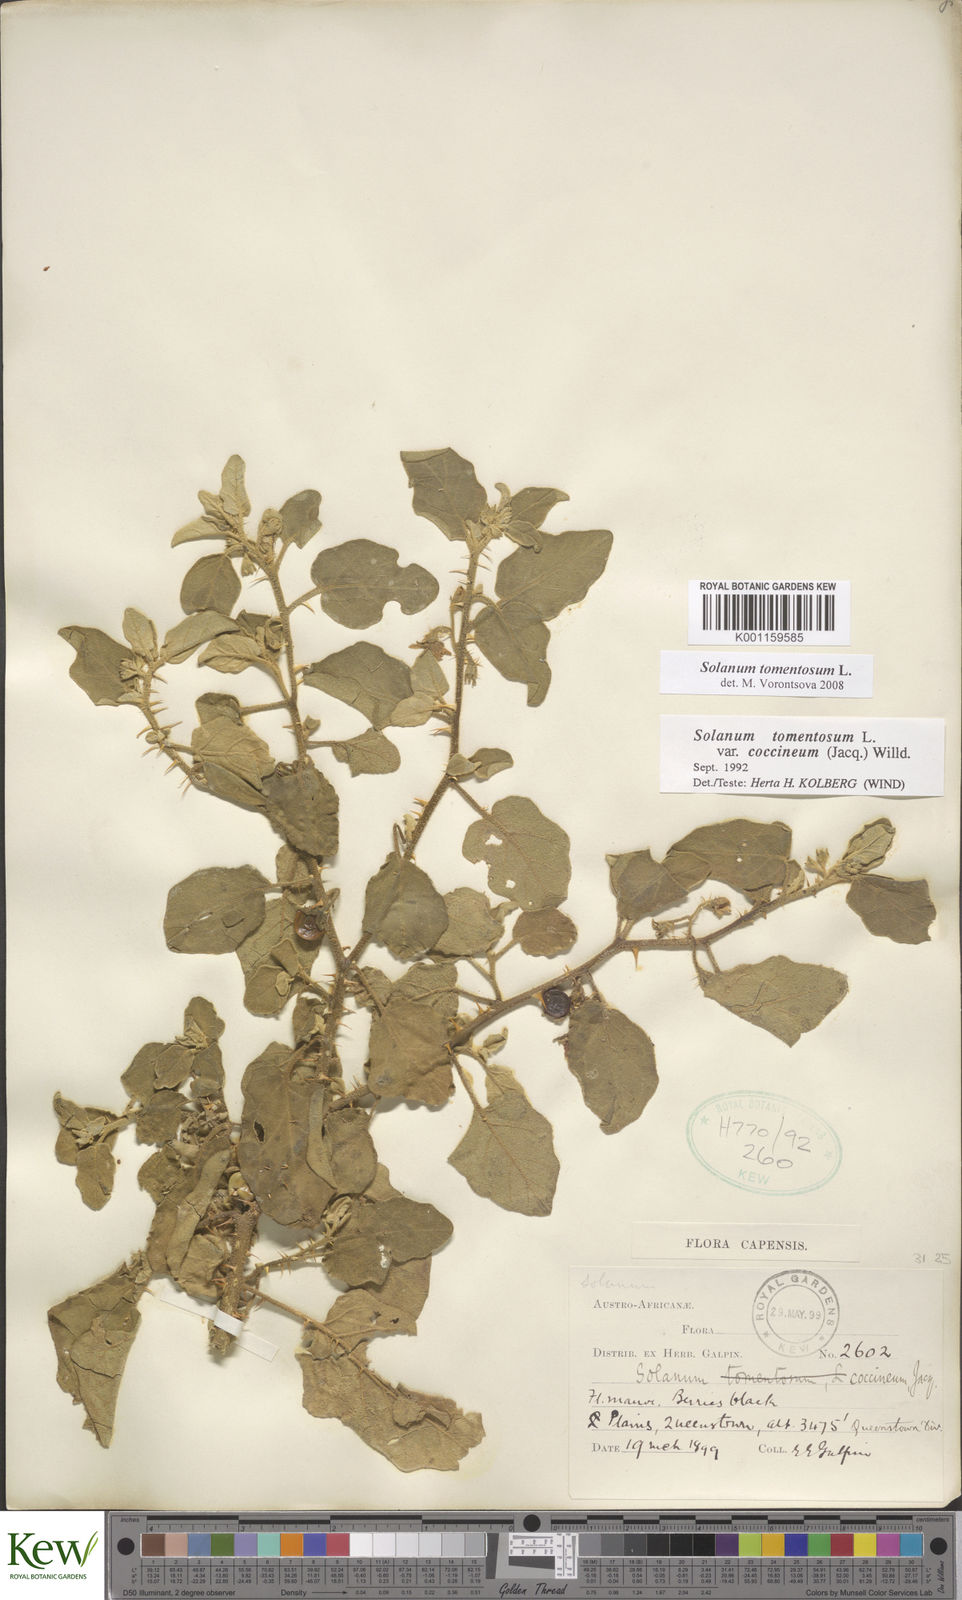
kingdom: Plantae
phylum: Tracheophyta
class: Magnoliopsida
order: Solanales
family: Solanaceae
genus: Solanum
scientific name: Solanum tomentosum
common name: Wild aubergine
